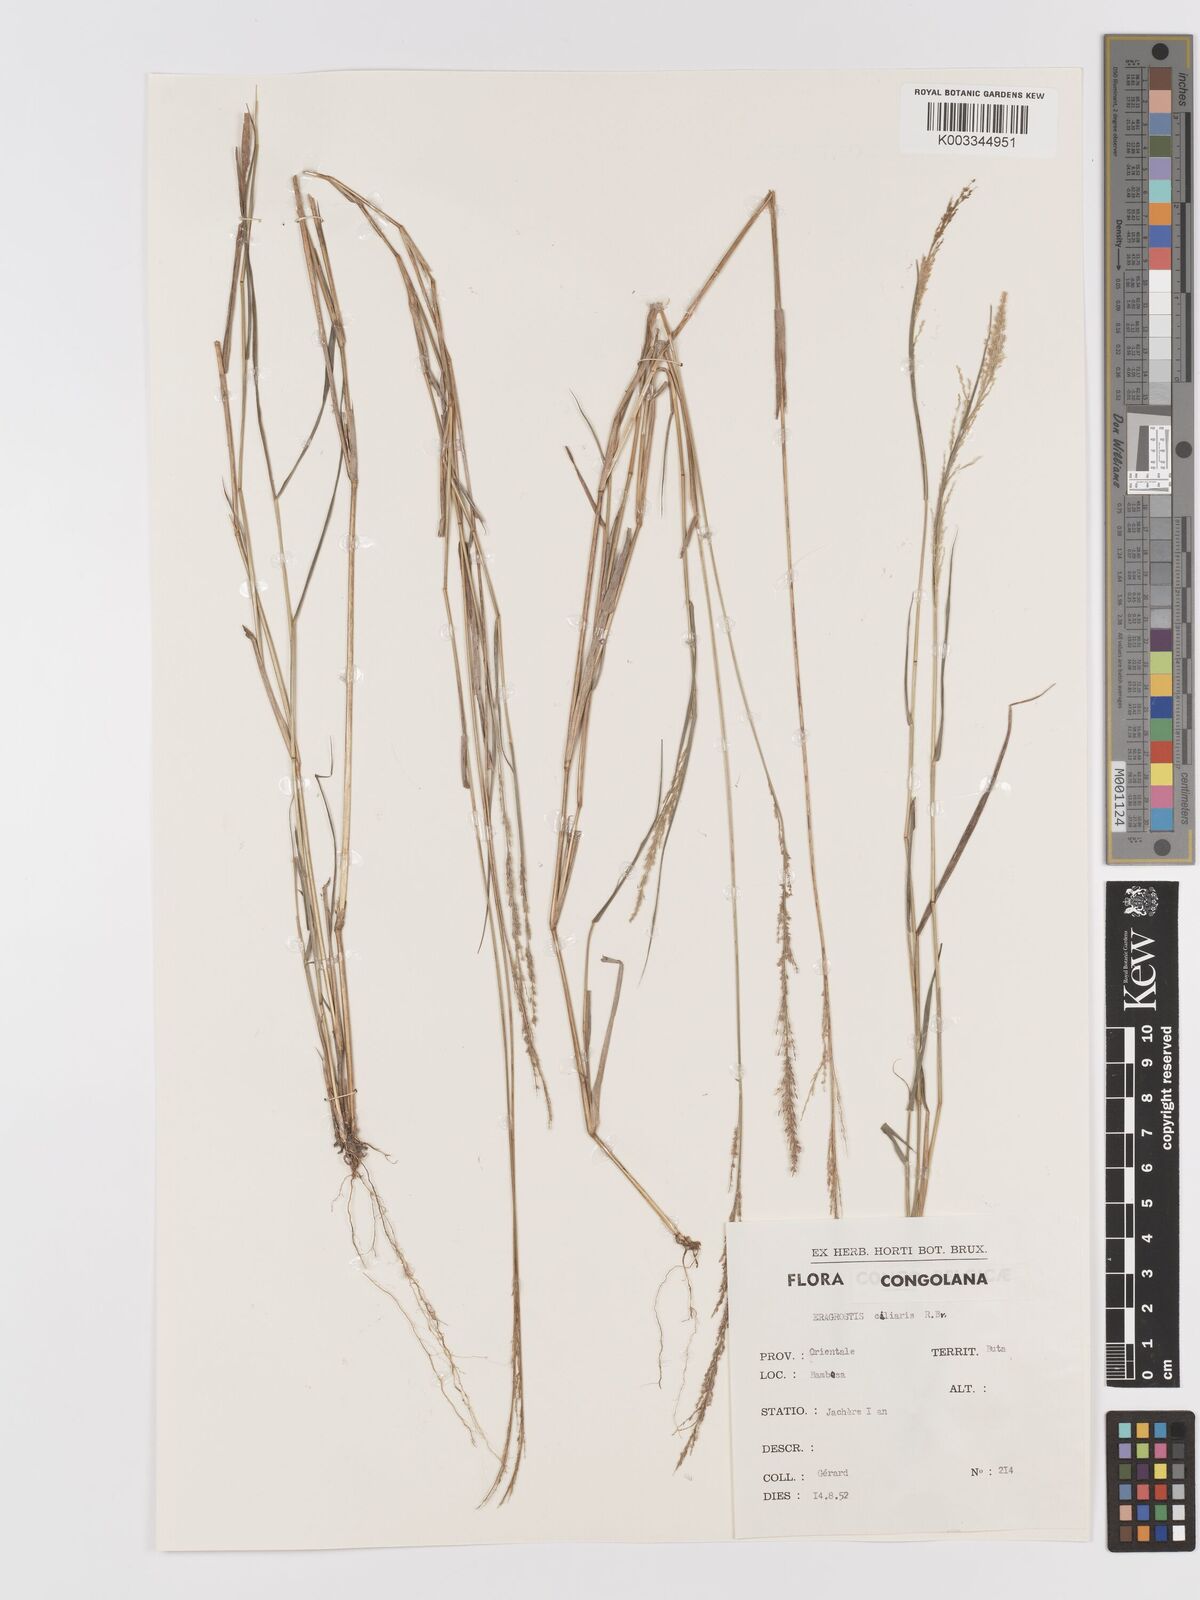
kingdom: Plantae
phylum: Tracheophyta
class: Liliopsida
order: Poales
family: Poaceae
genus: Eragrostis
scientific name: Eragrostis ciliaris
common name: Gophertail lovegrass
